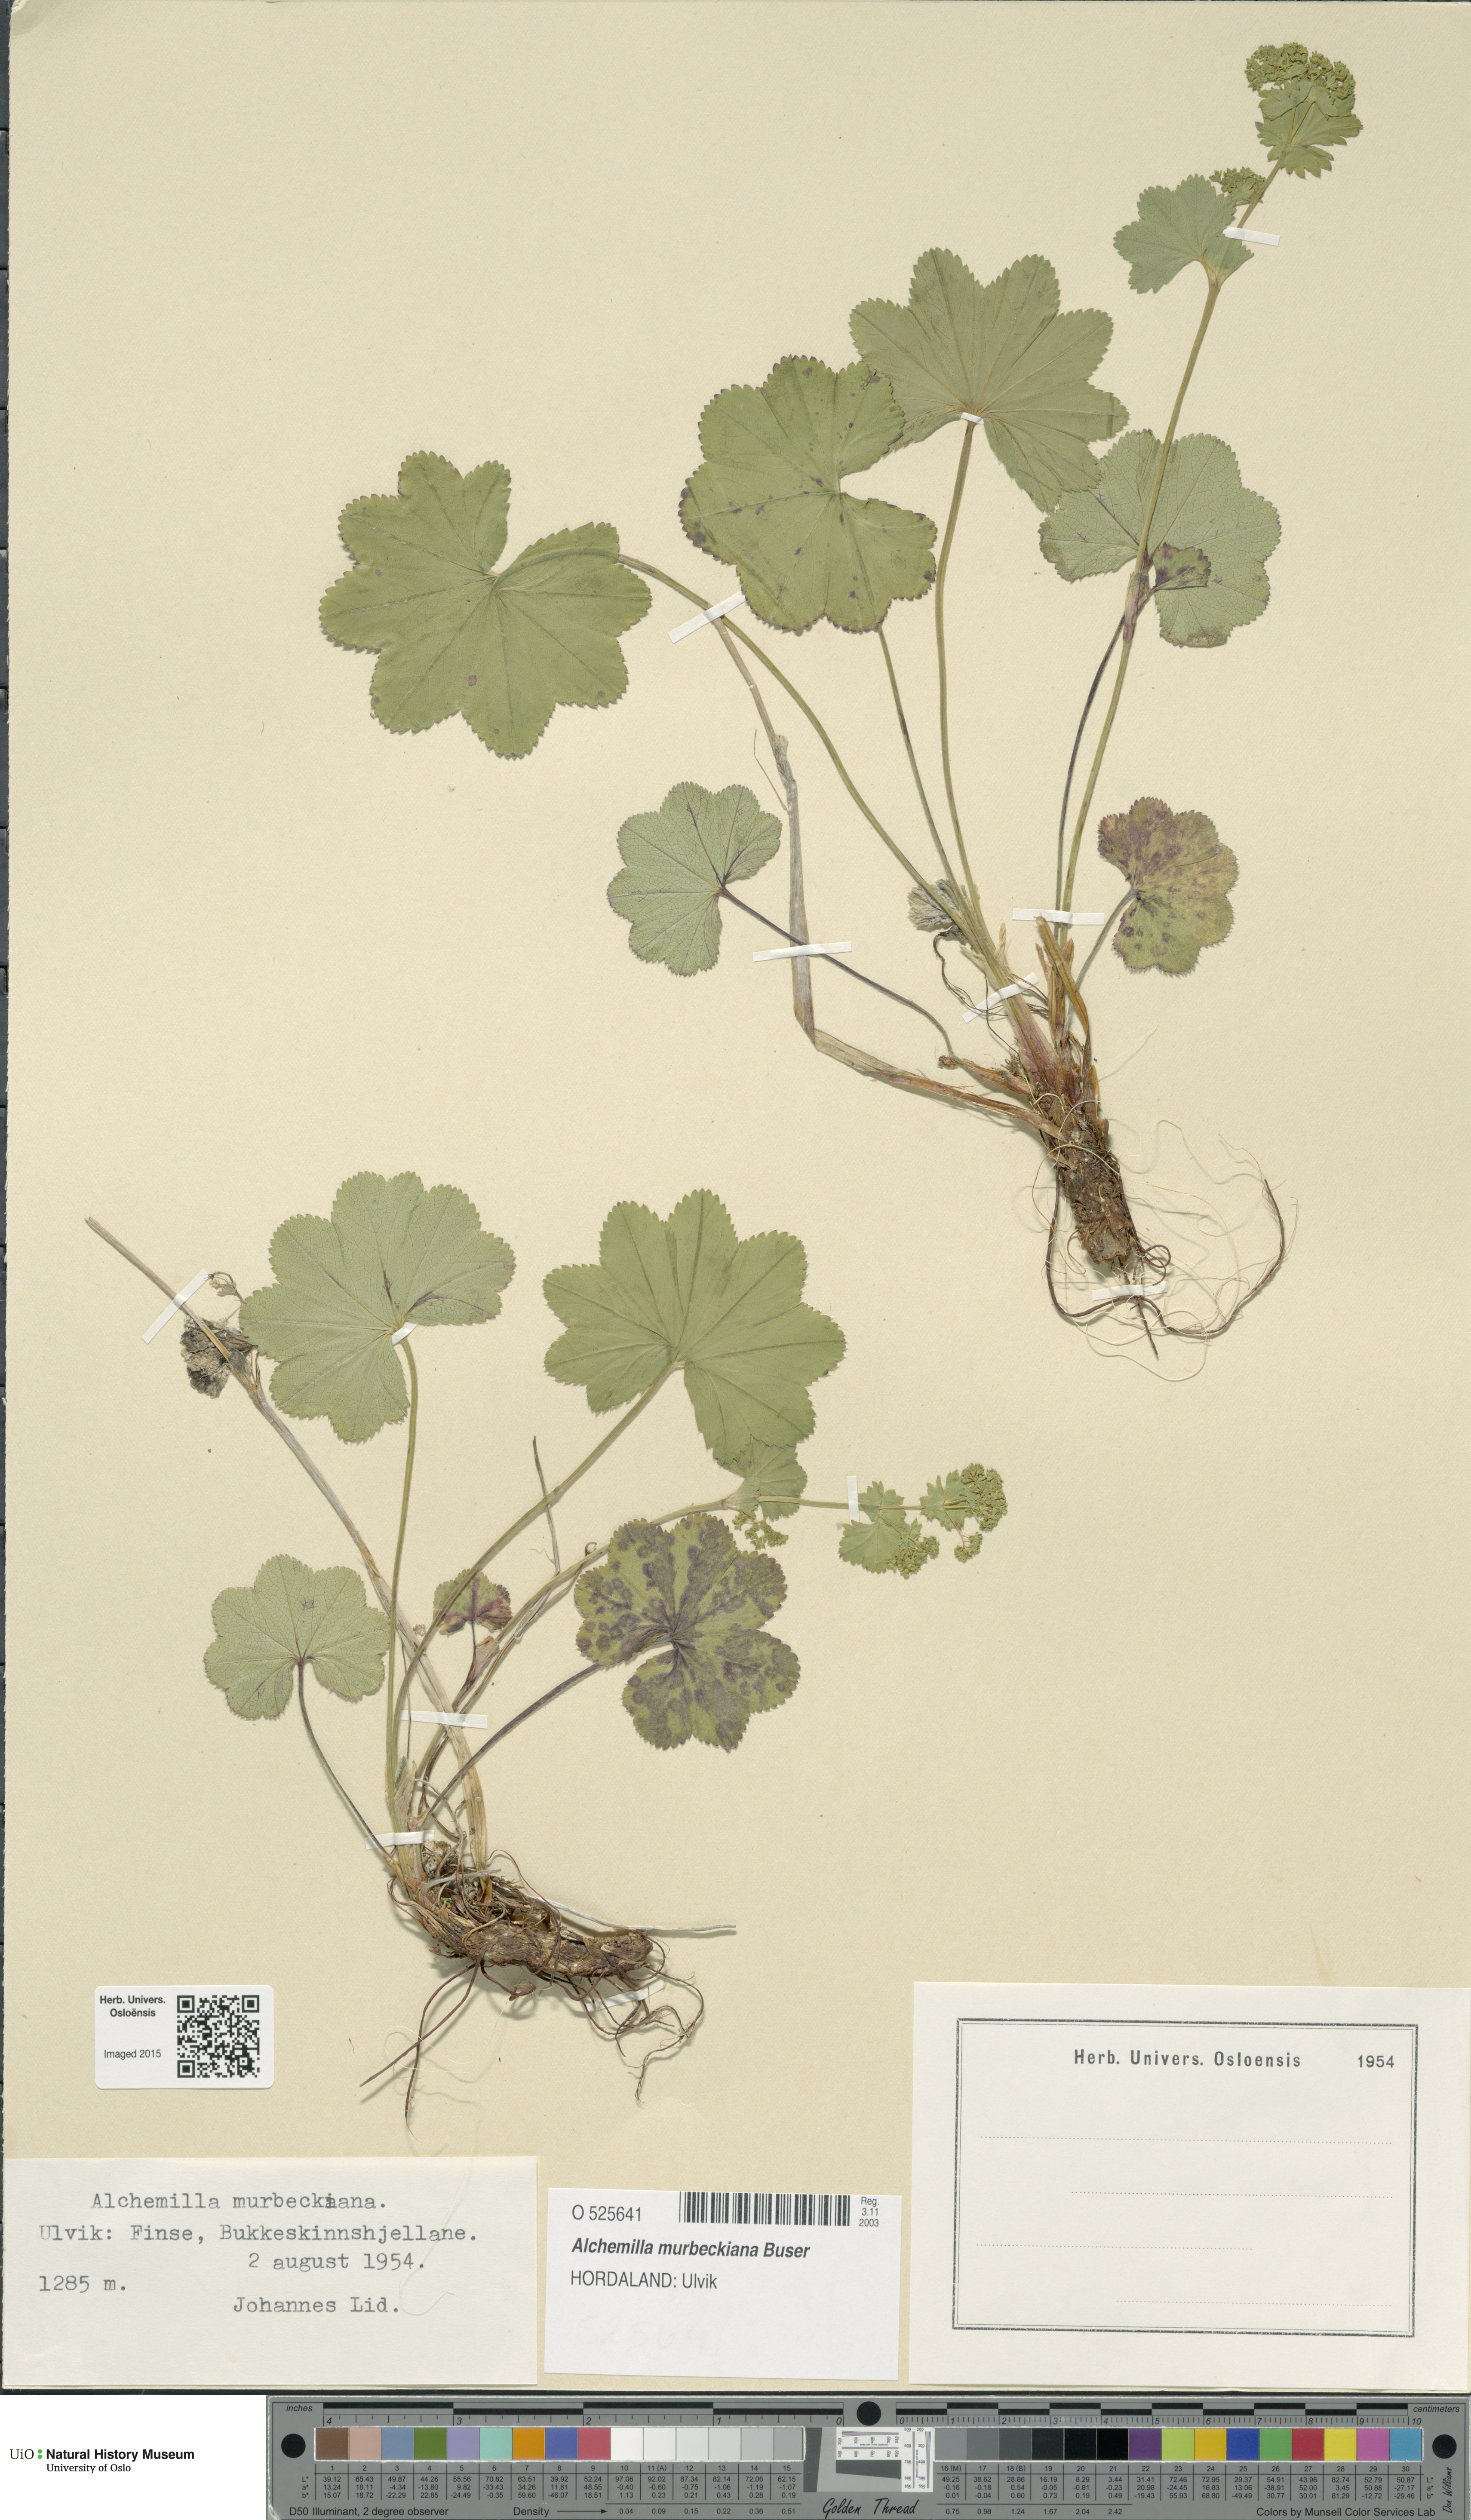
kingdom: Plantae
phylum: Tracheophyta
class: Magnoliopsida
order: Rosales
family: Rosaceae
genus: Alchemilla
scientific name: Alchemilla murbeckiana
